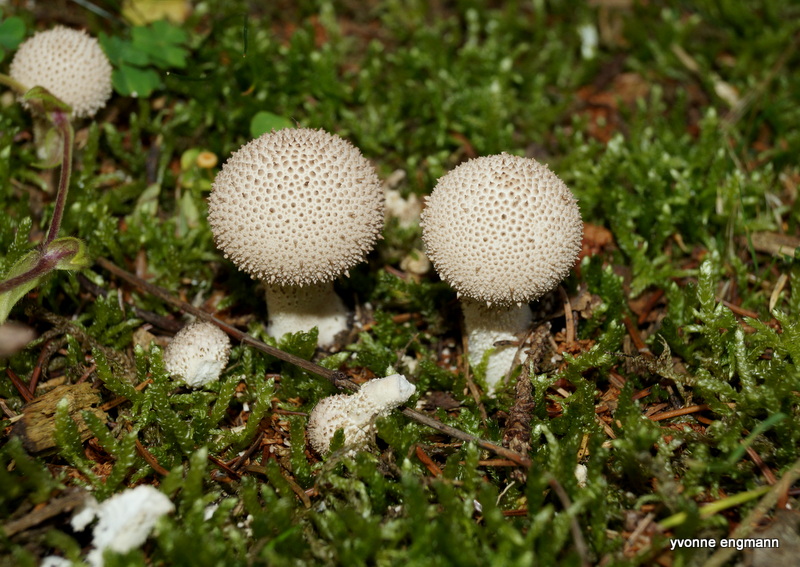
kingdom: Fungi
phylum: Basidiomycota
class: Agaricomycetes
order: Agaricales
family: Lycoperdaceae
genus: Lycoperdon
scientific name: Lycoperdon perlatum
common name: krystal-støvbold
